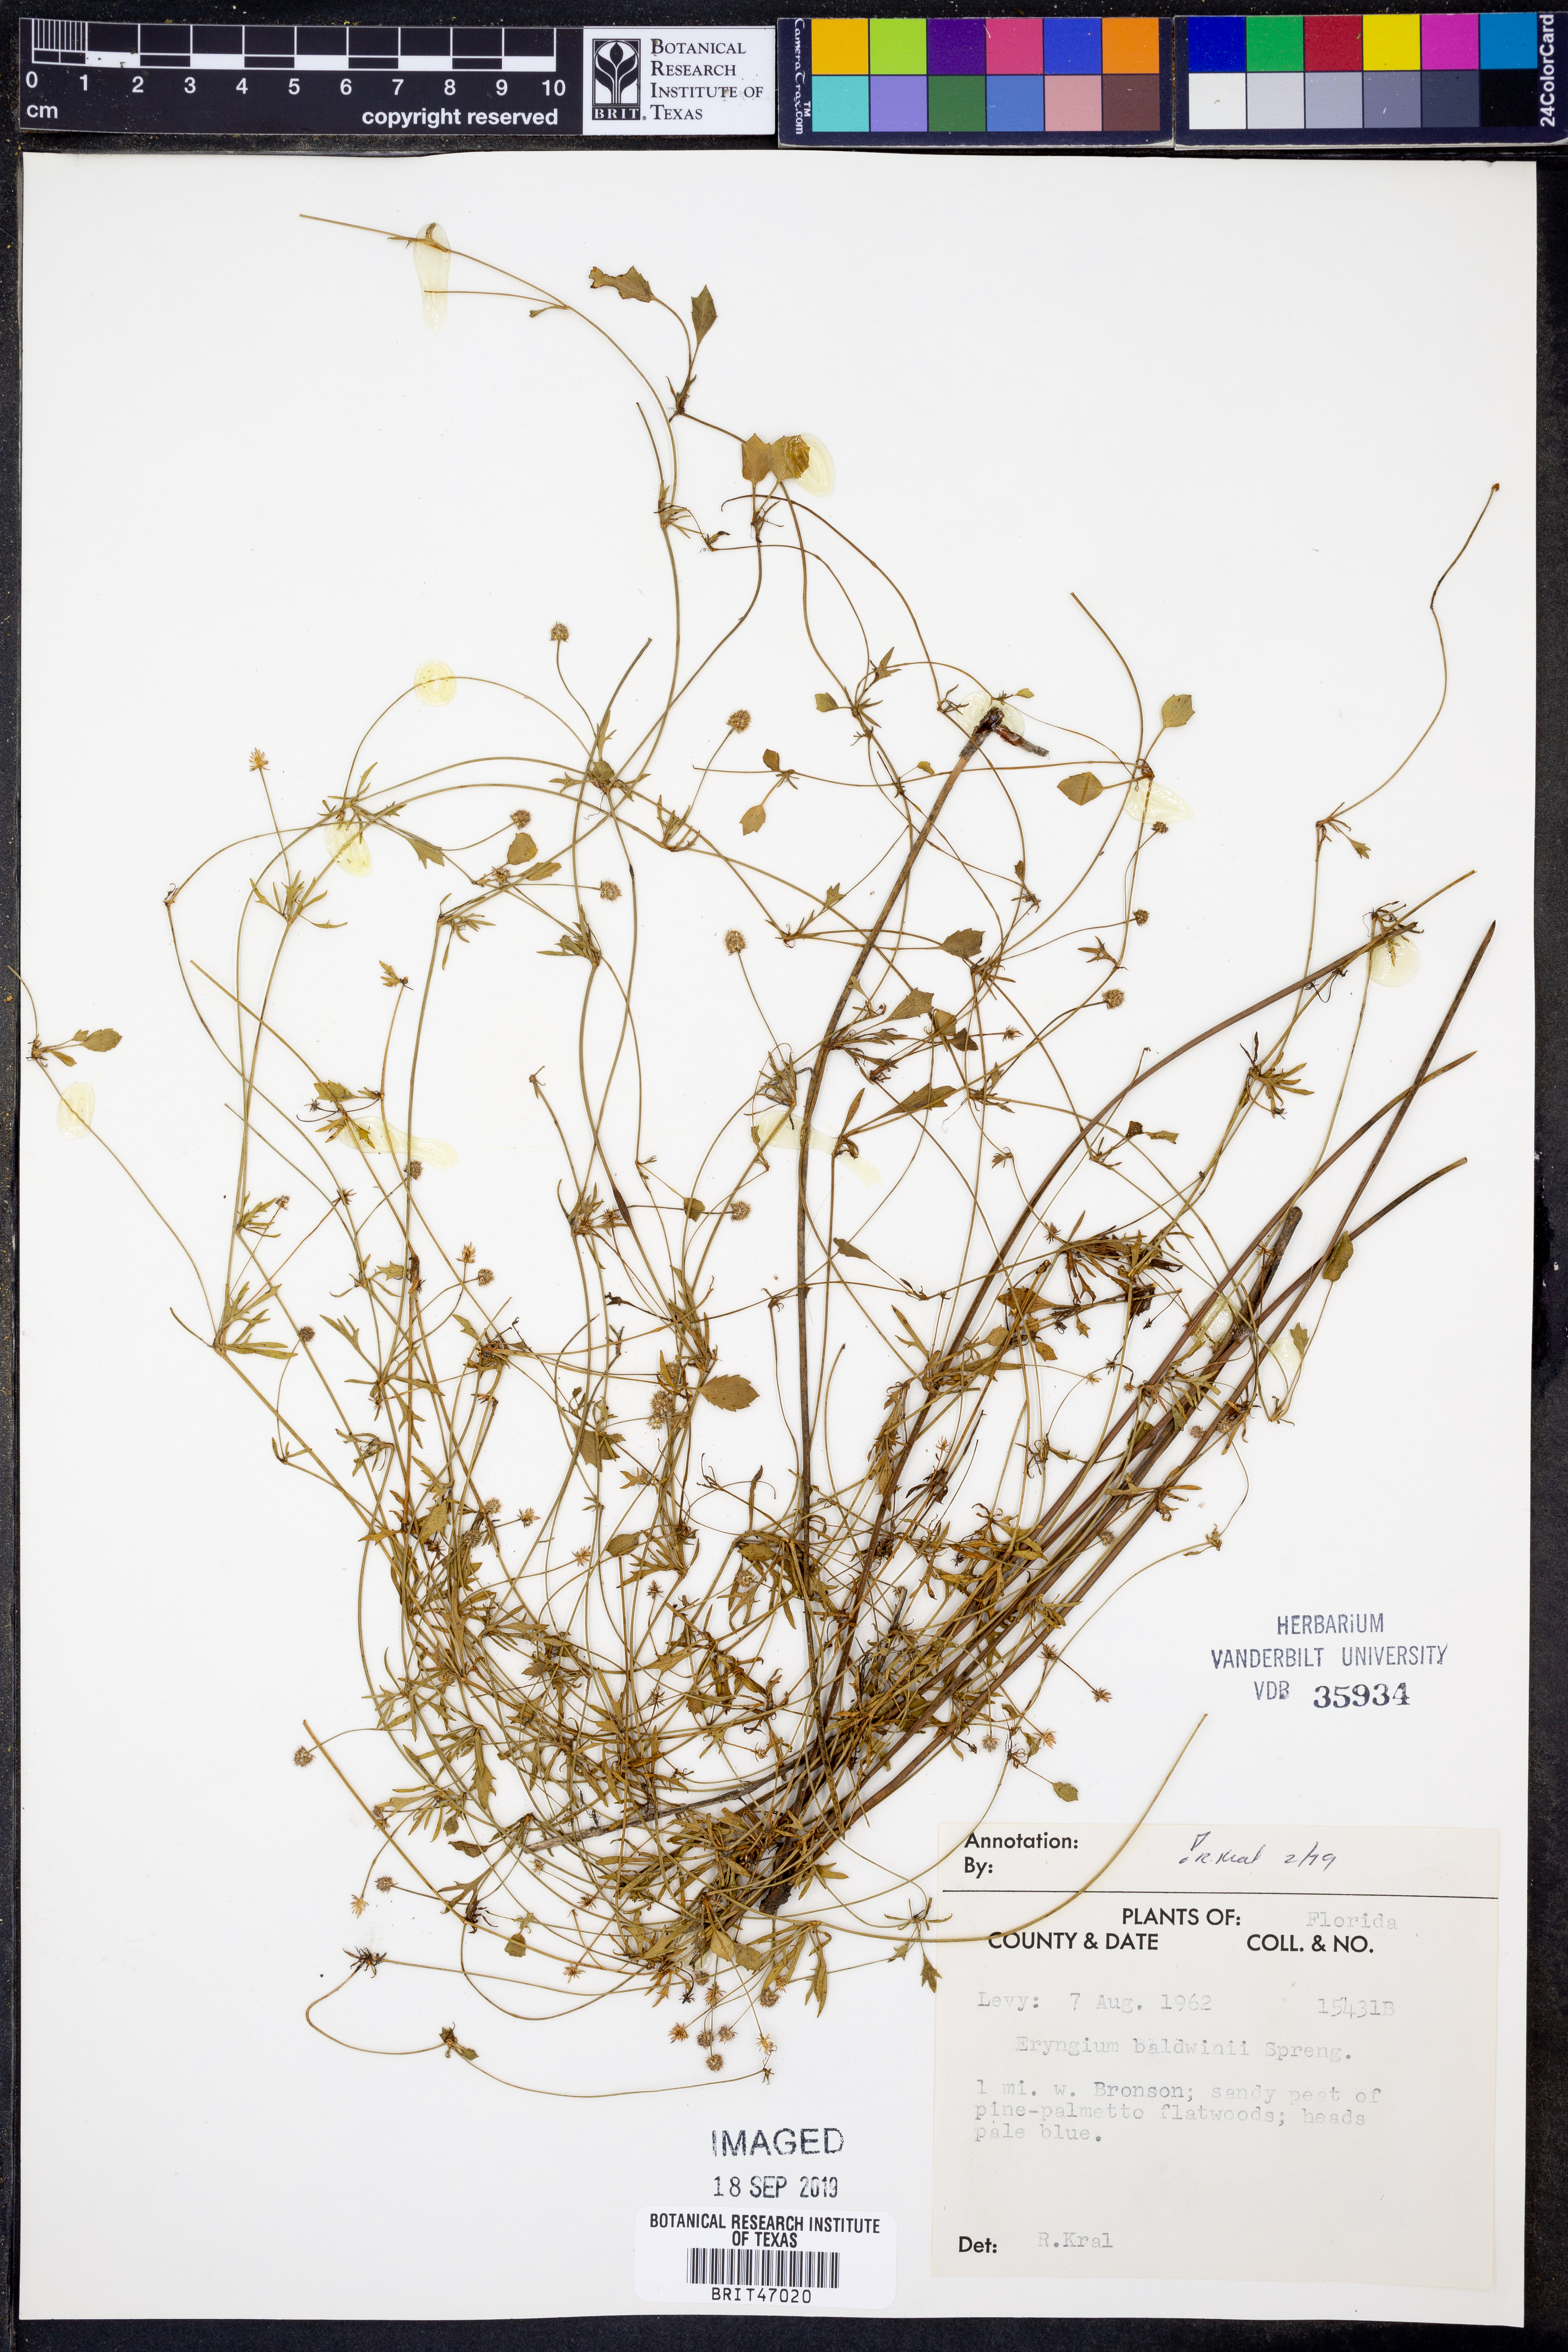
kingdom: Plantae
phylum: Tracheophyta
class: Magnoliopsida
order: Apiales
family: Apiaceae
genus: Eryngium
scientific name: Eryngium baldwinii
